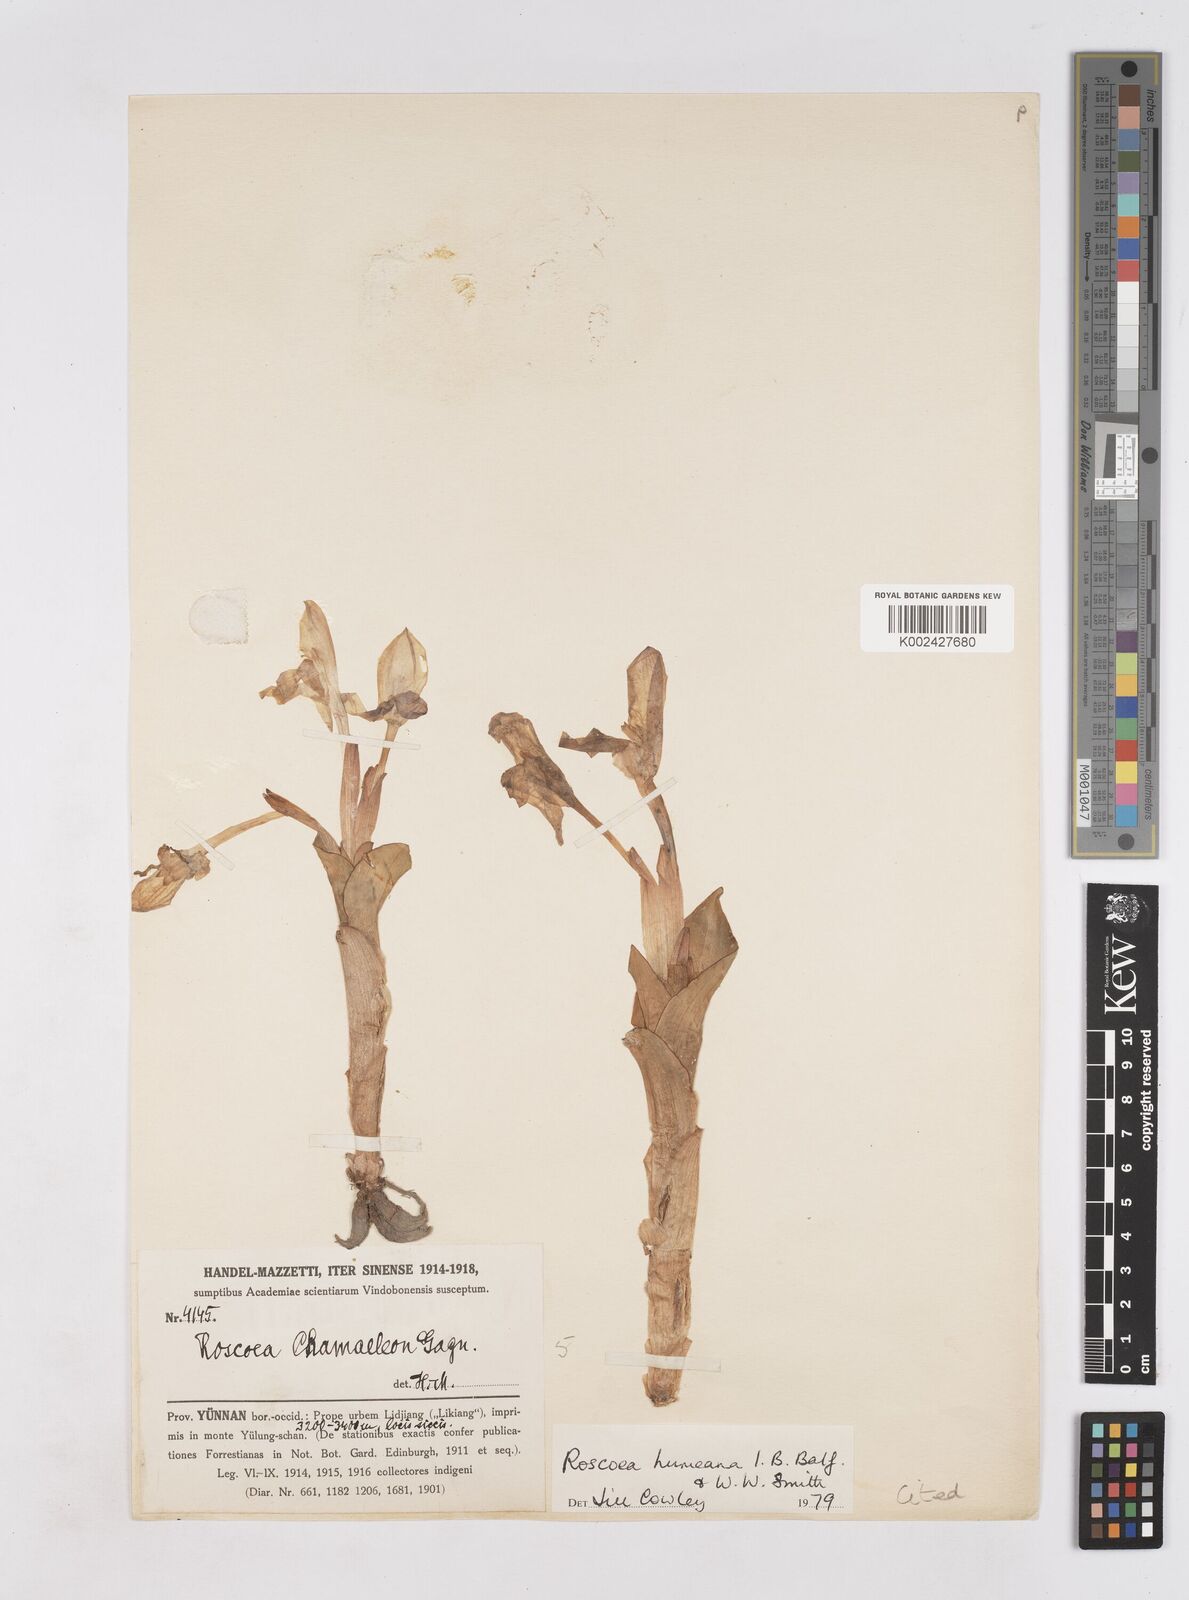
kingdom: Plantae
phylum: Tracheophyta
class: Liliopsida
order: Zingiberales
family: Zingiberaceae
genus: Roscoea
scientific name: Roscoea humeana
